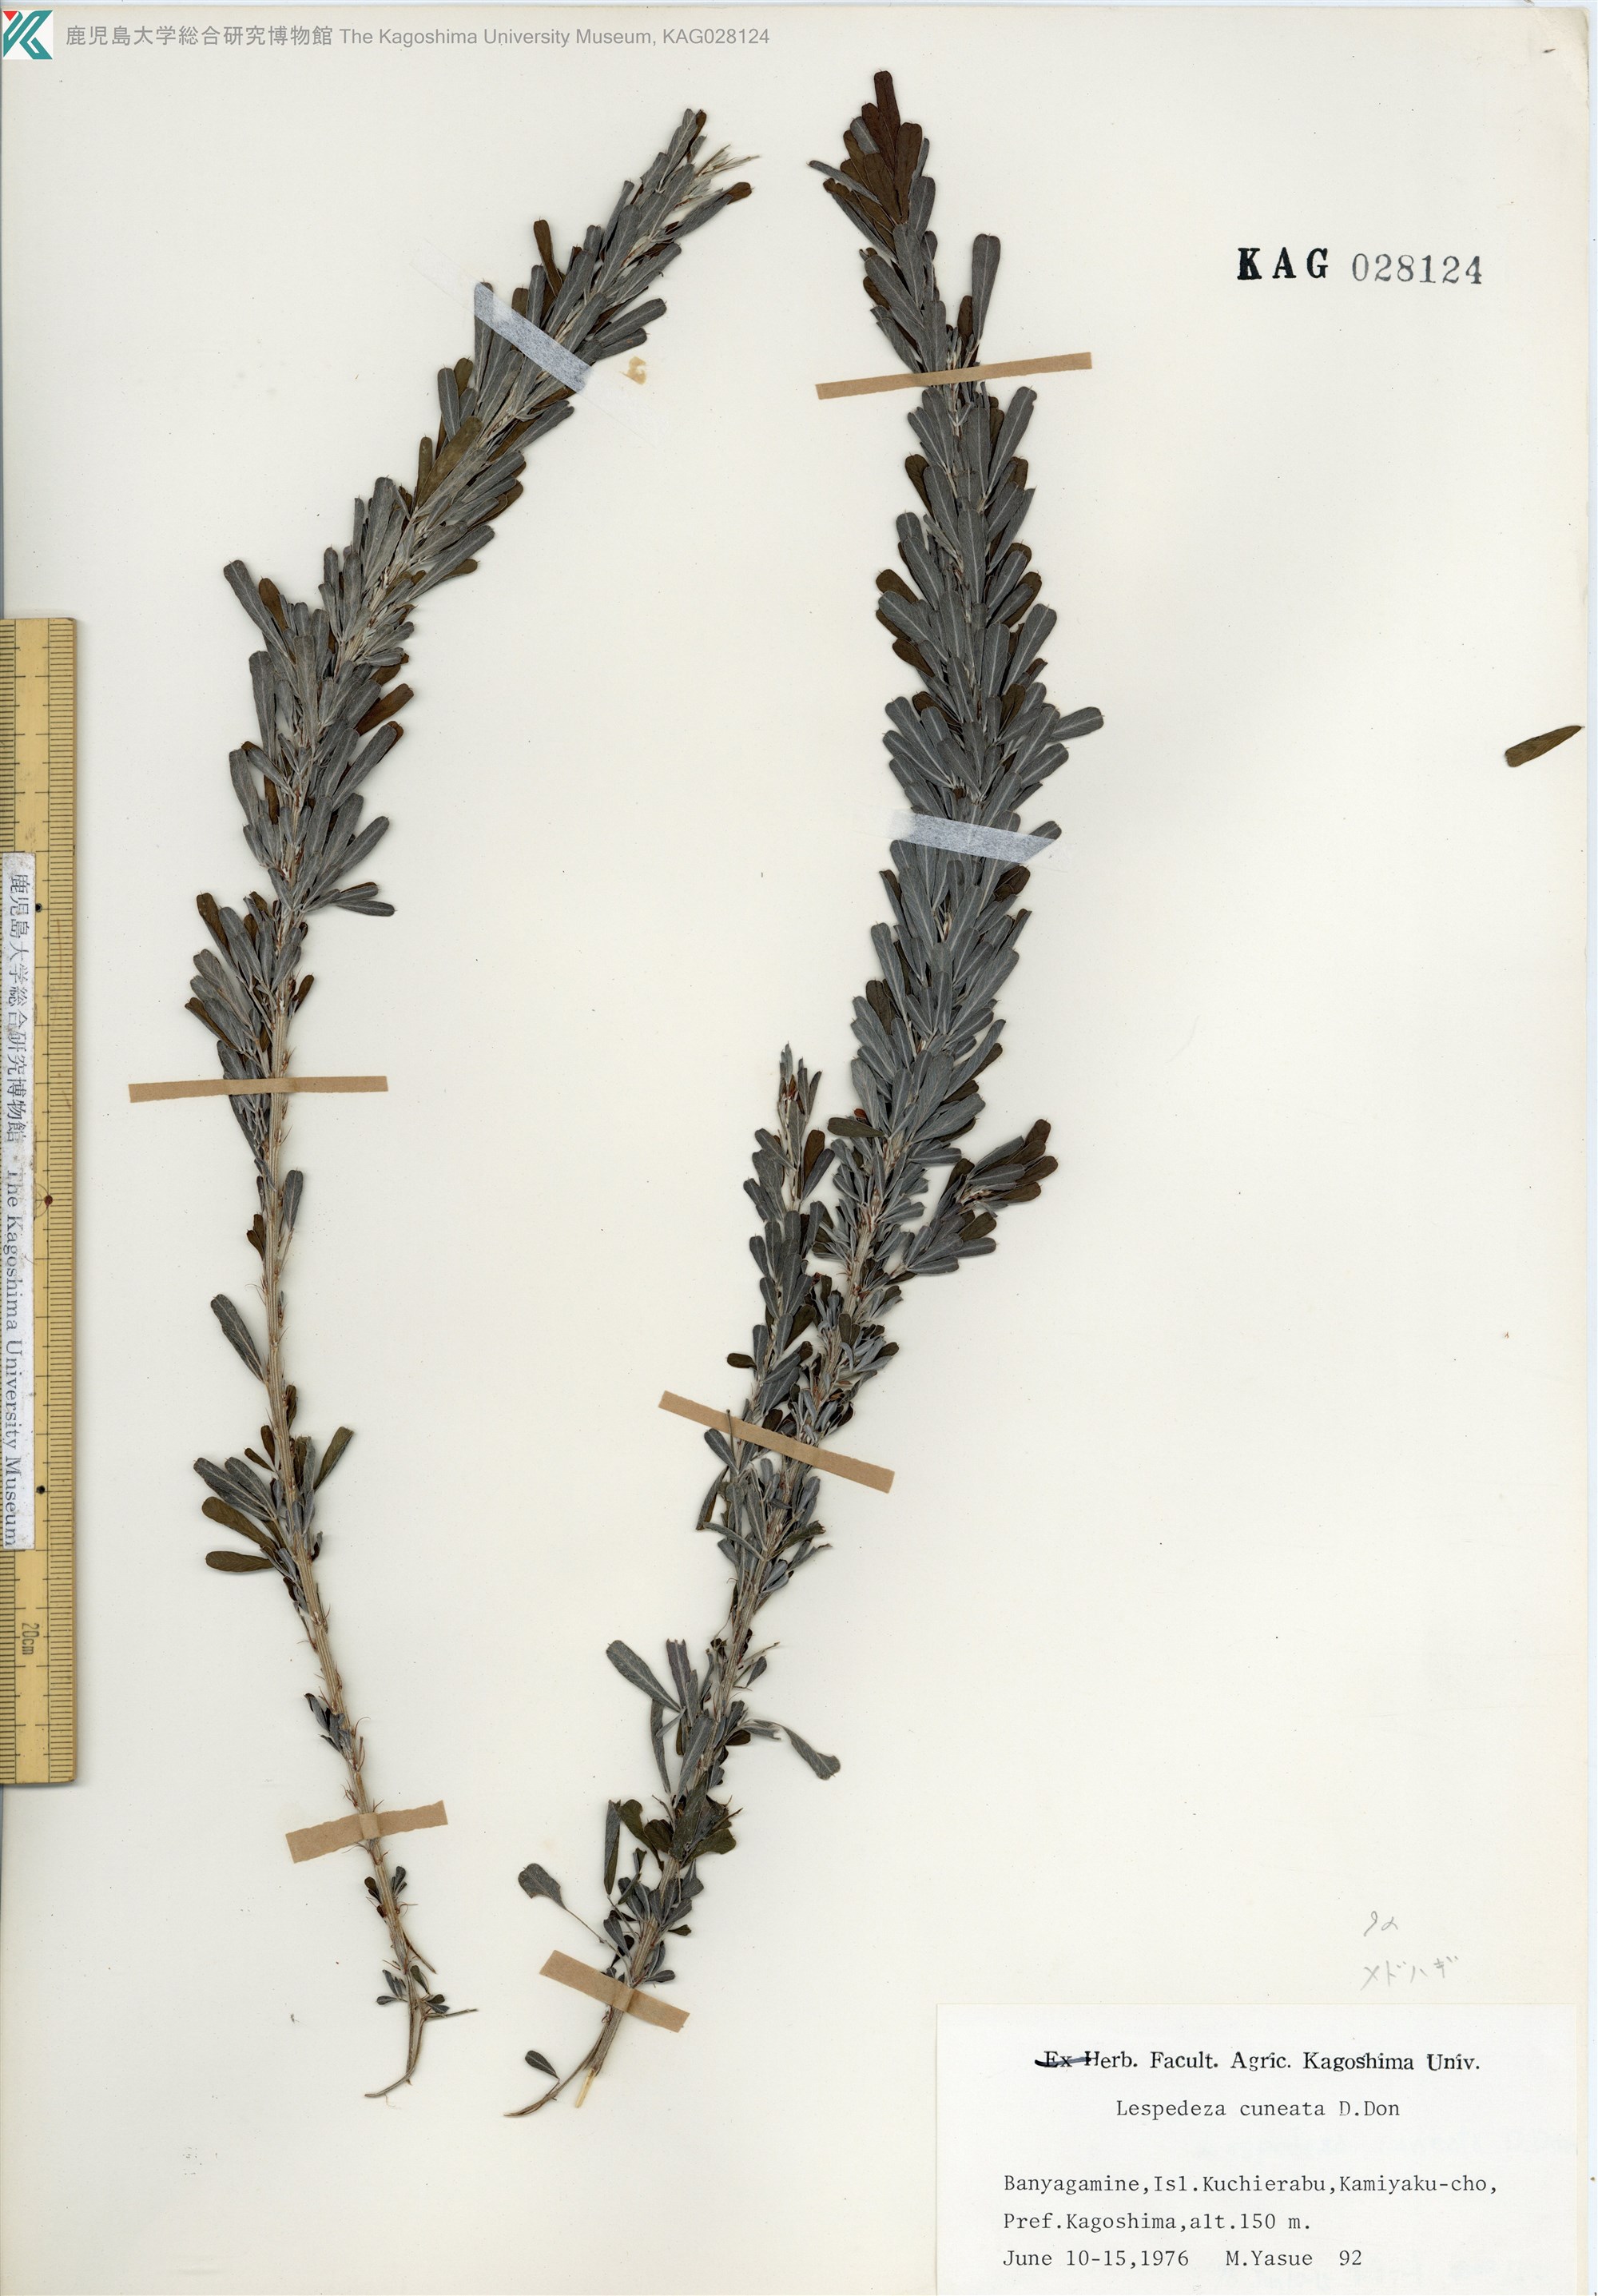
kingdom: Plantae
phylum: Tracheophyta
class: Magnoliopsida
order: Fabales
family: Fabaceae
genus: Lespedeza
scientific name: Lespedeza cuneata
